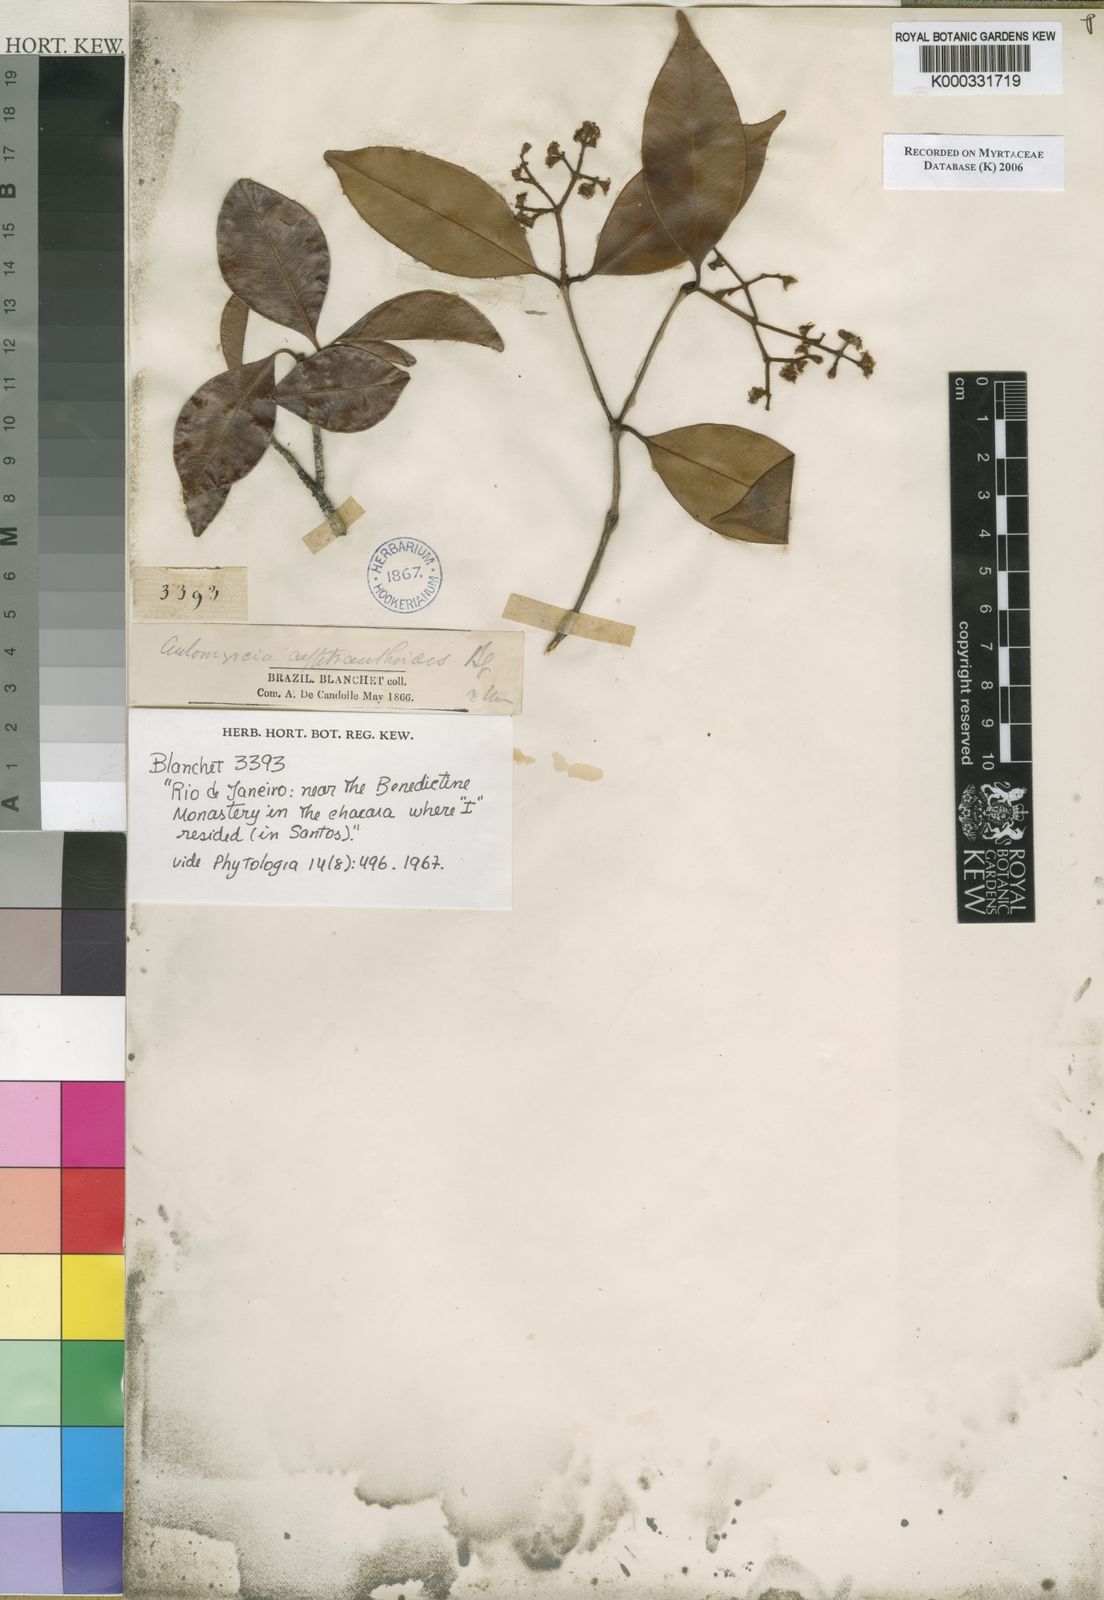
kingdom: Plantae
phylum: Tracheophyta
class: Magnoliopsida
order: Myrtales
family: Myrtaceae
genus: Myrcia
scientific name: Myrcia calyptranthoides
